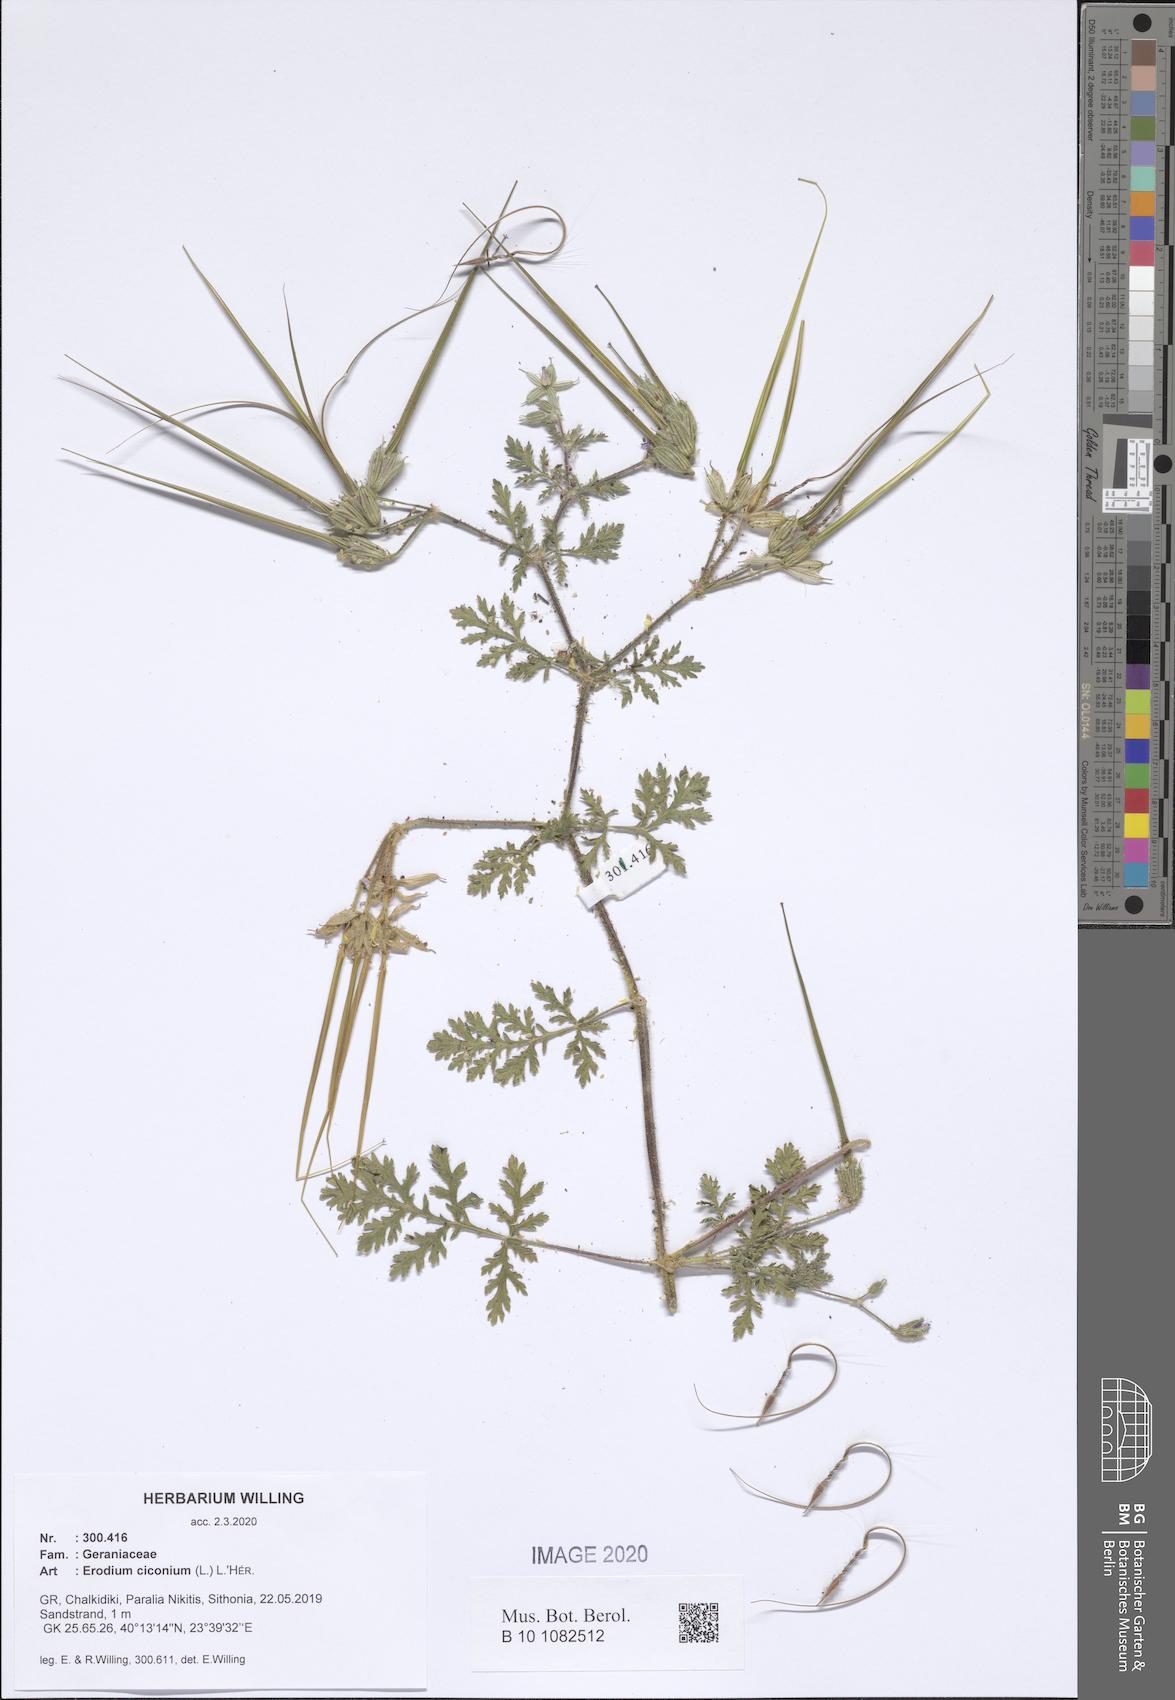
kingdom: Plantae
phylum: Tracheophyta
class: Magnoliopsida
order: Geraniales
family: Geraniaceae
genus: Erodium
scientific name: Erodium ciconium
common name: Common stork's bill
